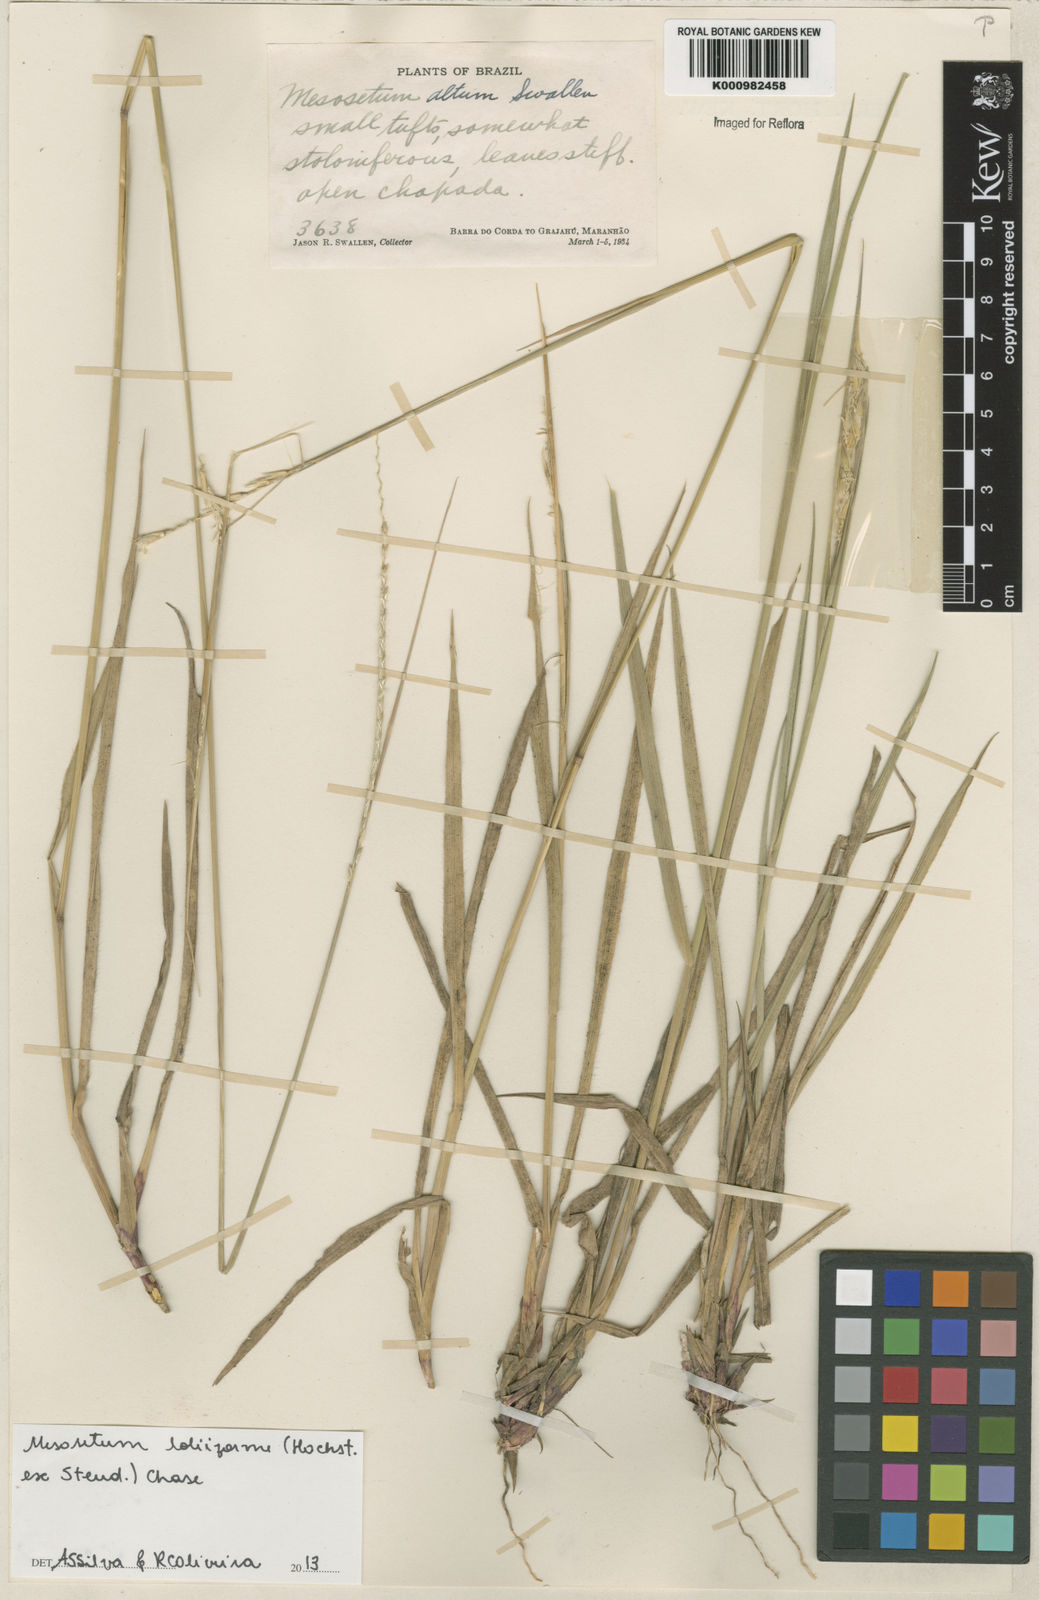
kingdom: Plantae
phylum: Tracheophyta
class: Liliopsida
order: Poales
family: Poaceae
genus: Mesosetum
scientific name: Mesosetum
